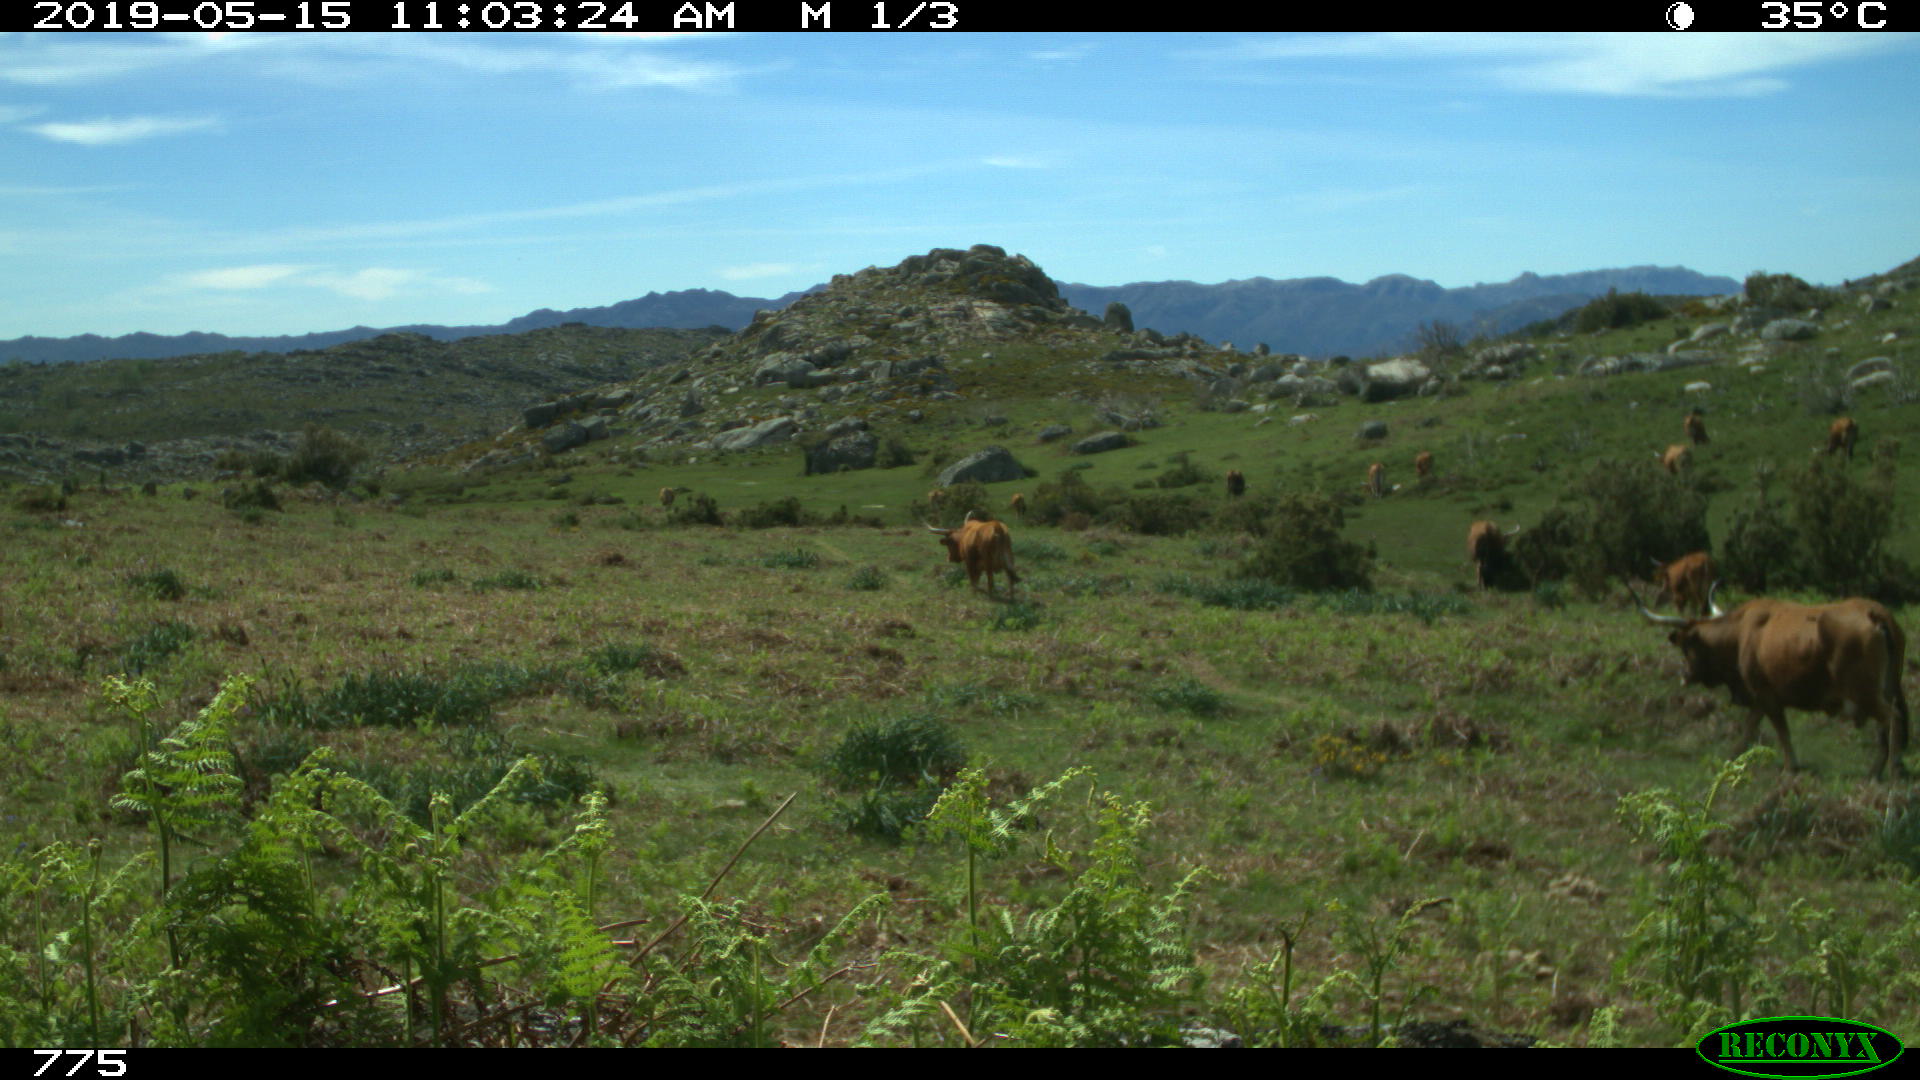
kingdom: Animalia
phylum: Chordata
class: Mammalia
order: Artiodactyla
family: Bovidae
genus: Bos
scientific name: Bos taurus
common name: Domesticated cattle
